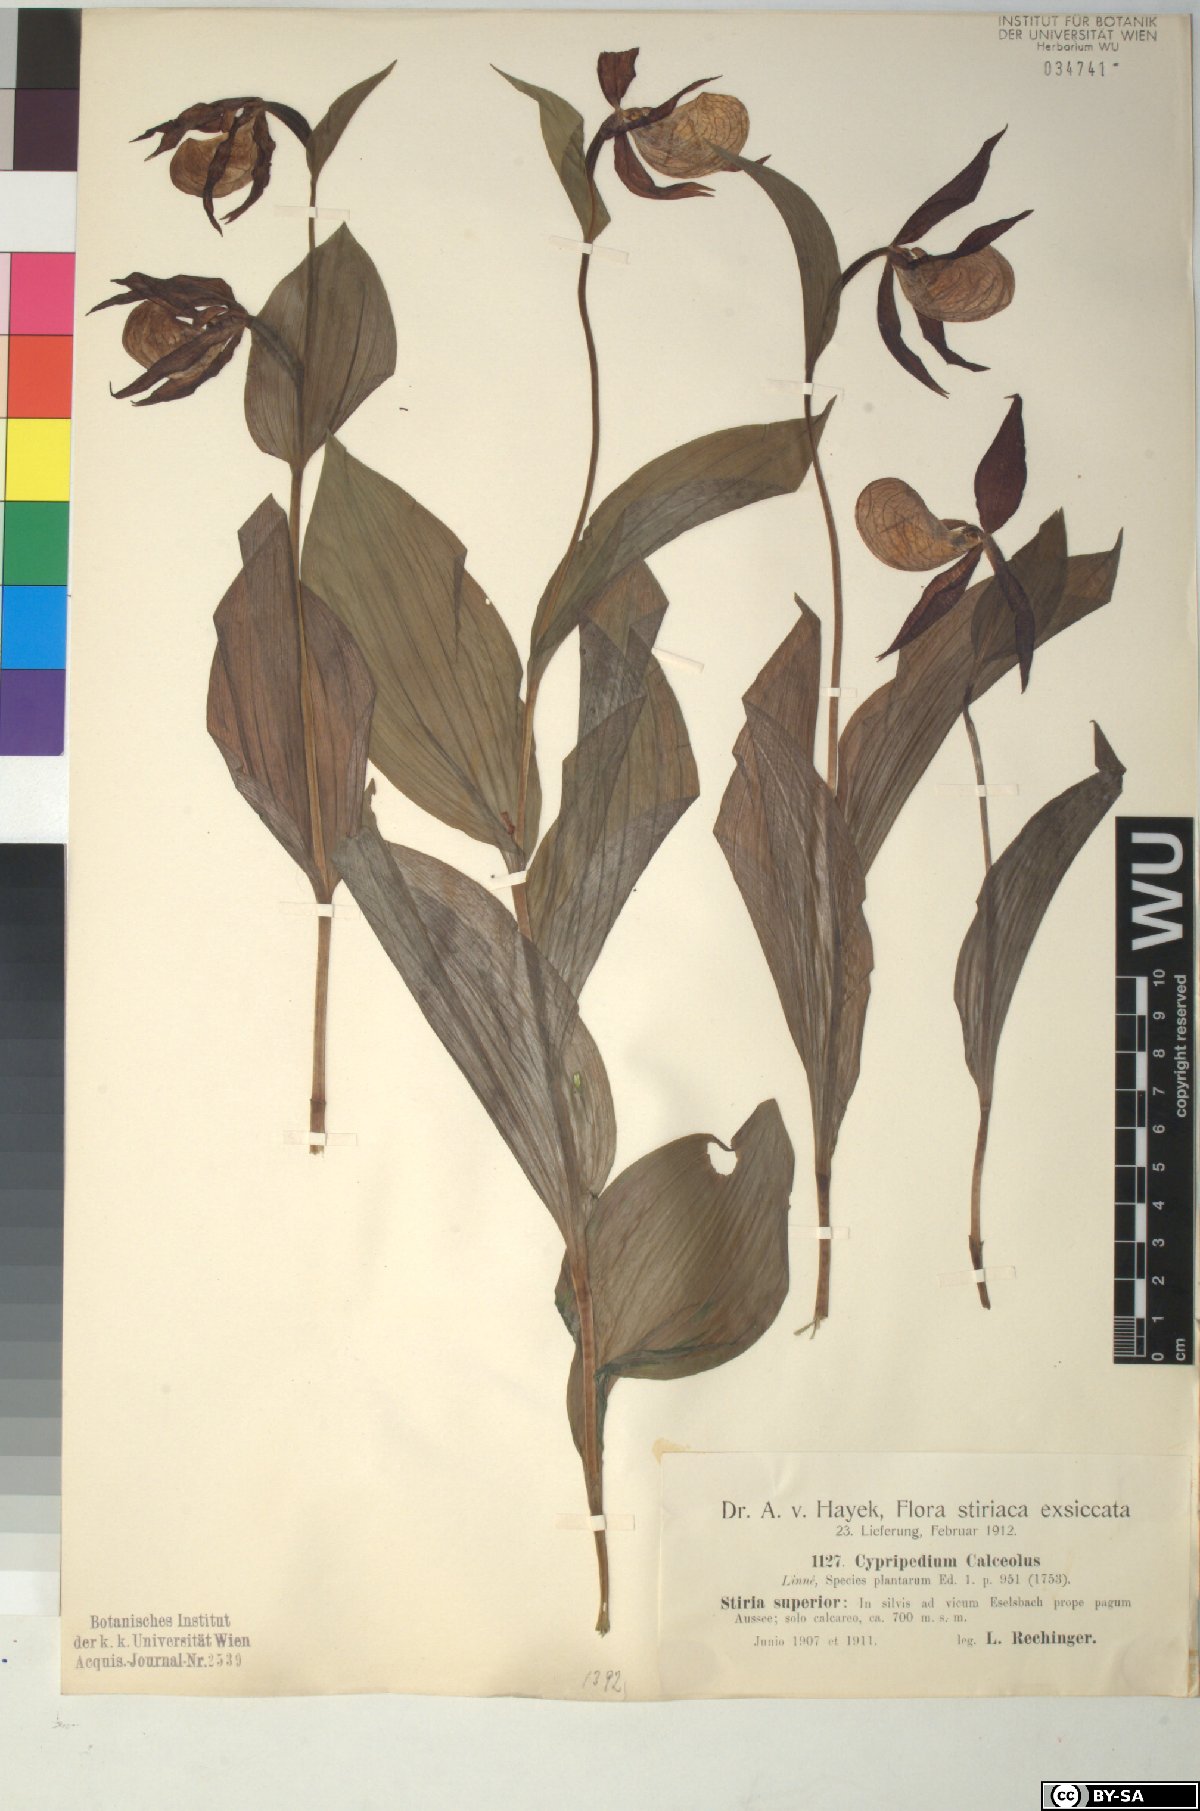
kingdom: Plantae
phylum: Tracheophyta
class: Liliopsida
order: Asparagales
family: Orchidaceae
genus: Cypripedium
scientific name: Cypripedium calceolus
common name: Lady's-slipper
